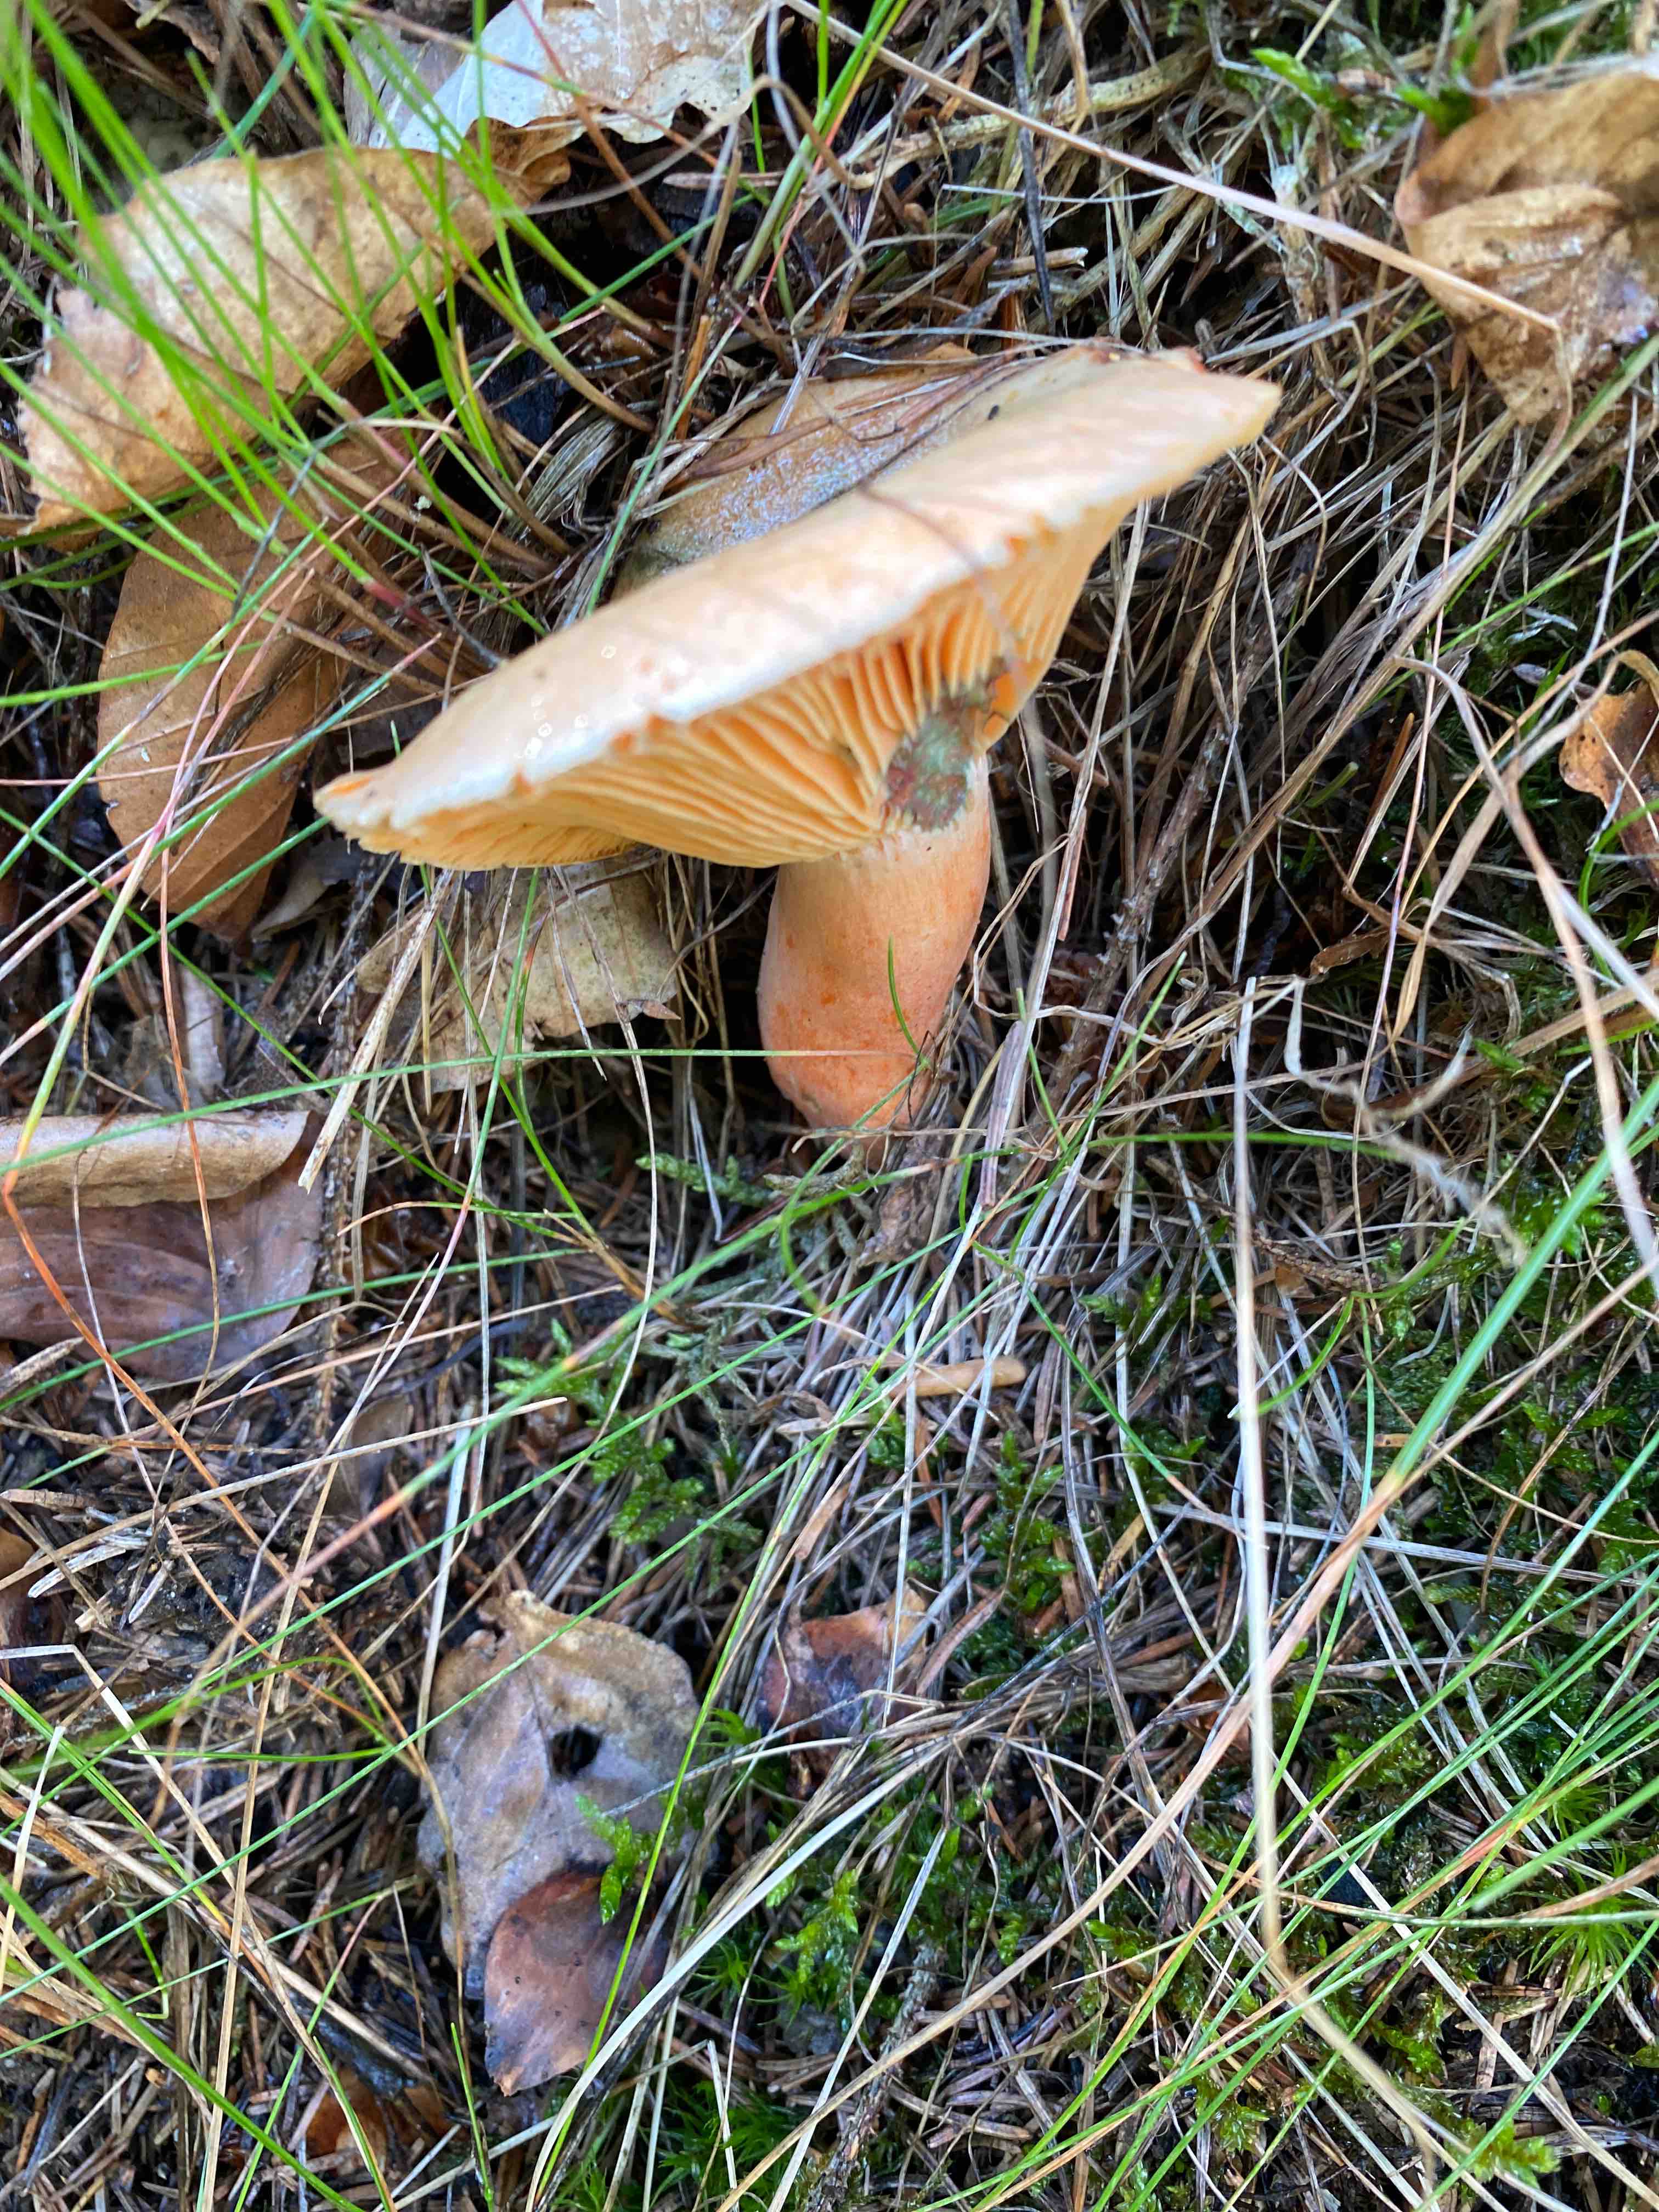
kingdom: Fungi
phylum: Basidiomycota
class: Agaricomycetes
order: Russulales
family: Russulaceae
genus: Lactarius
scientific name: Lactarius deterrimus
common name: gran-mælkehat
